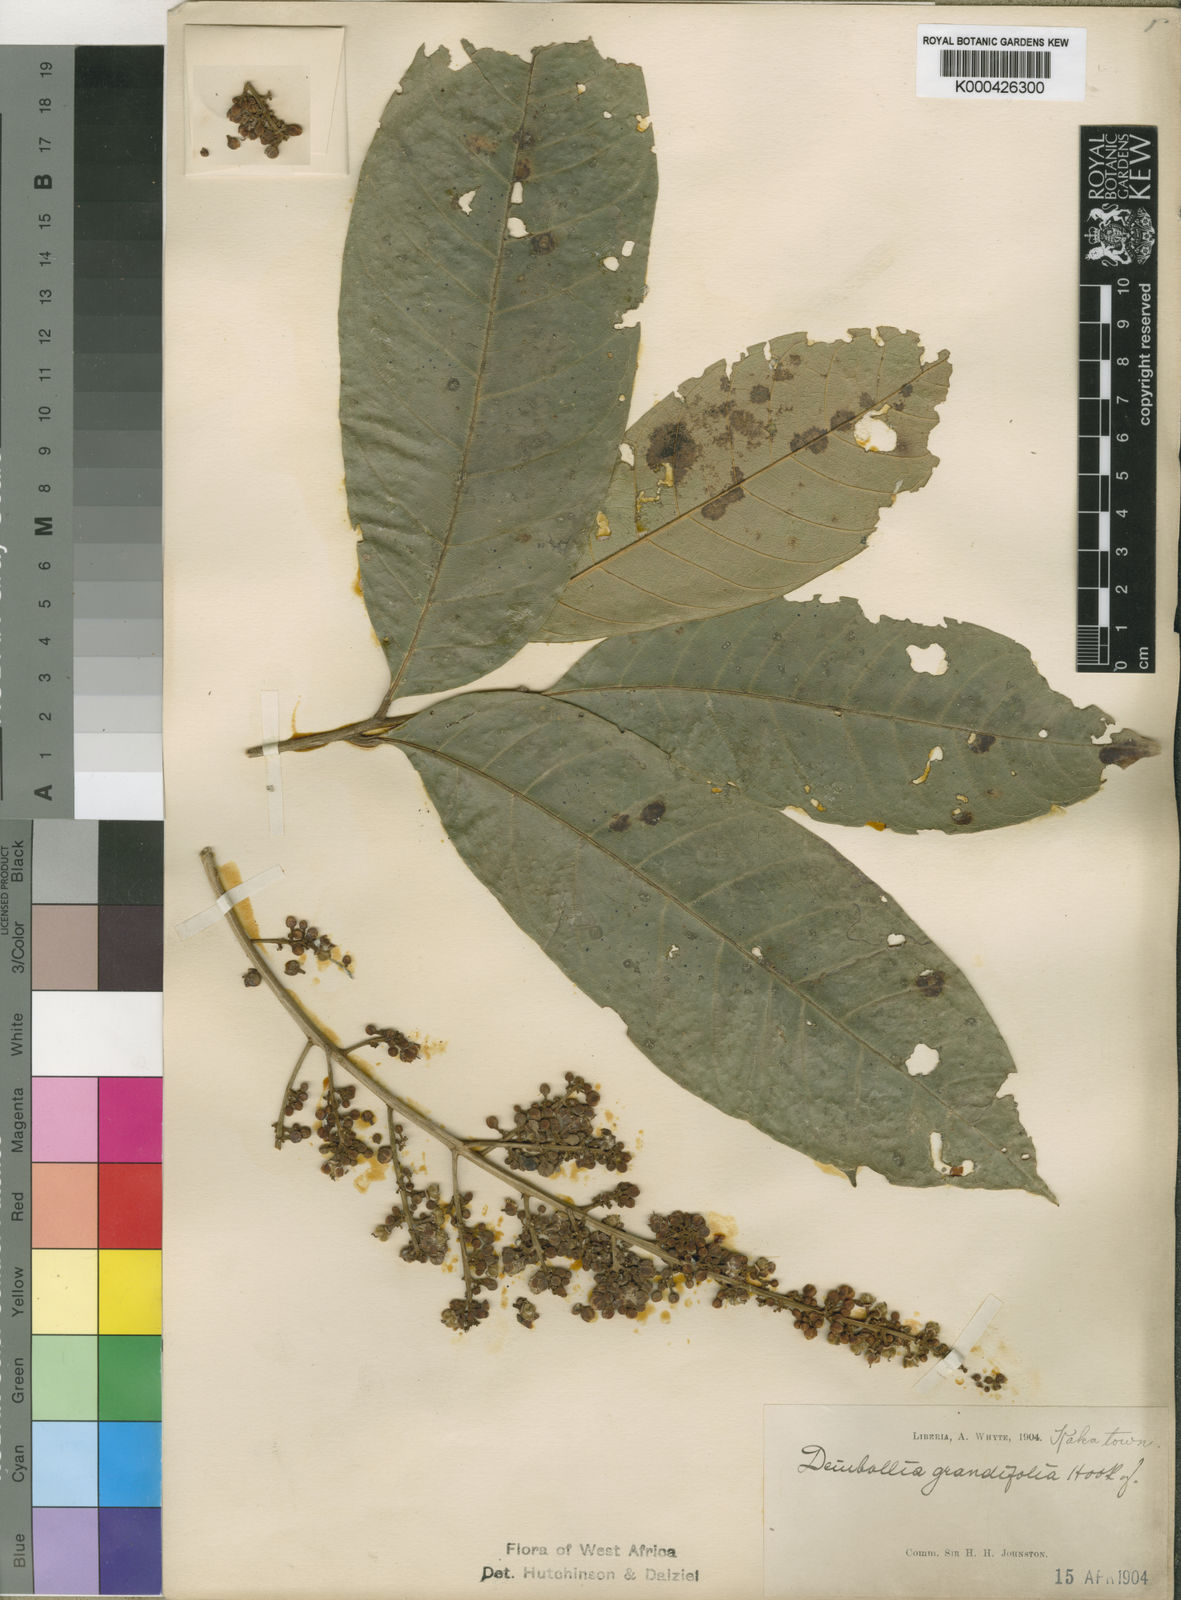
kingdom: Plantae
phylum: Tracheophyta
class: Magnoliopsida
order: Sapindales
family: Sapindaceae
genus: Deinbollia
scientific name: Deinbollia grandifolia
